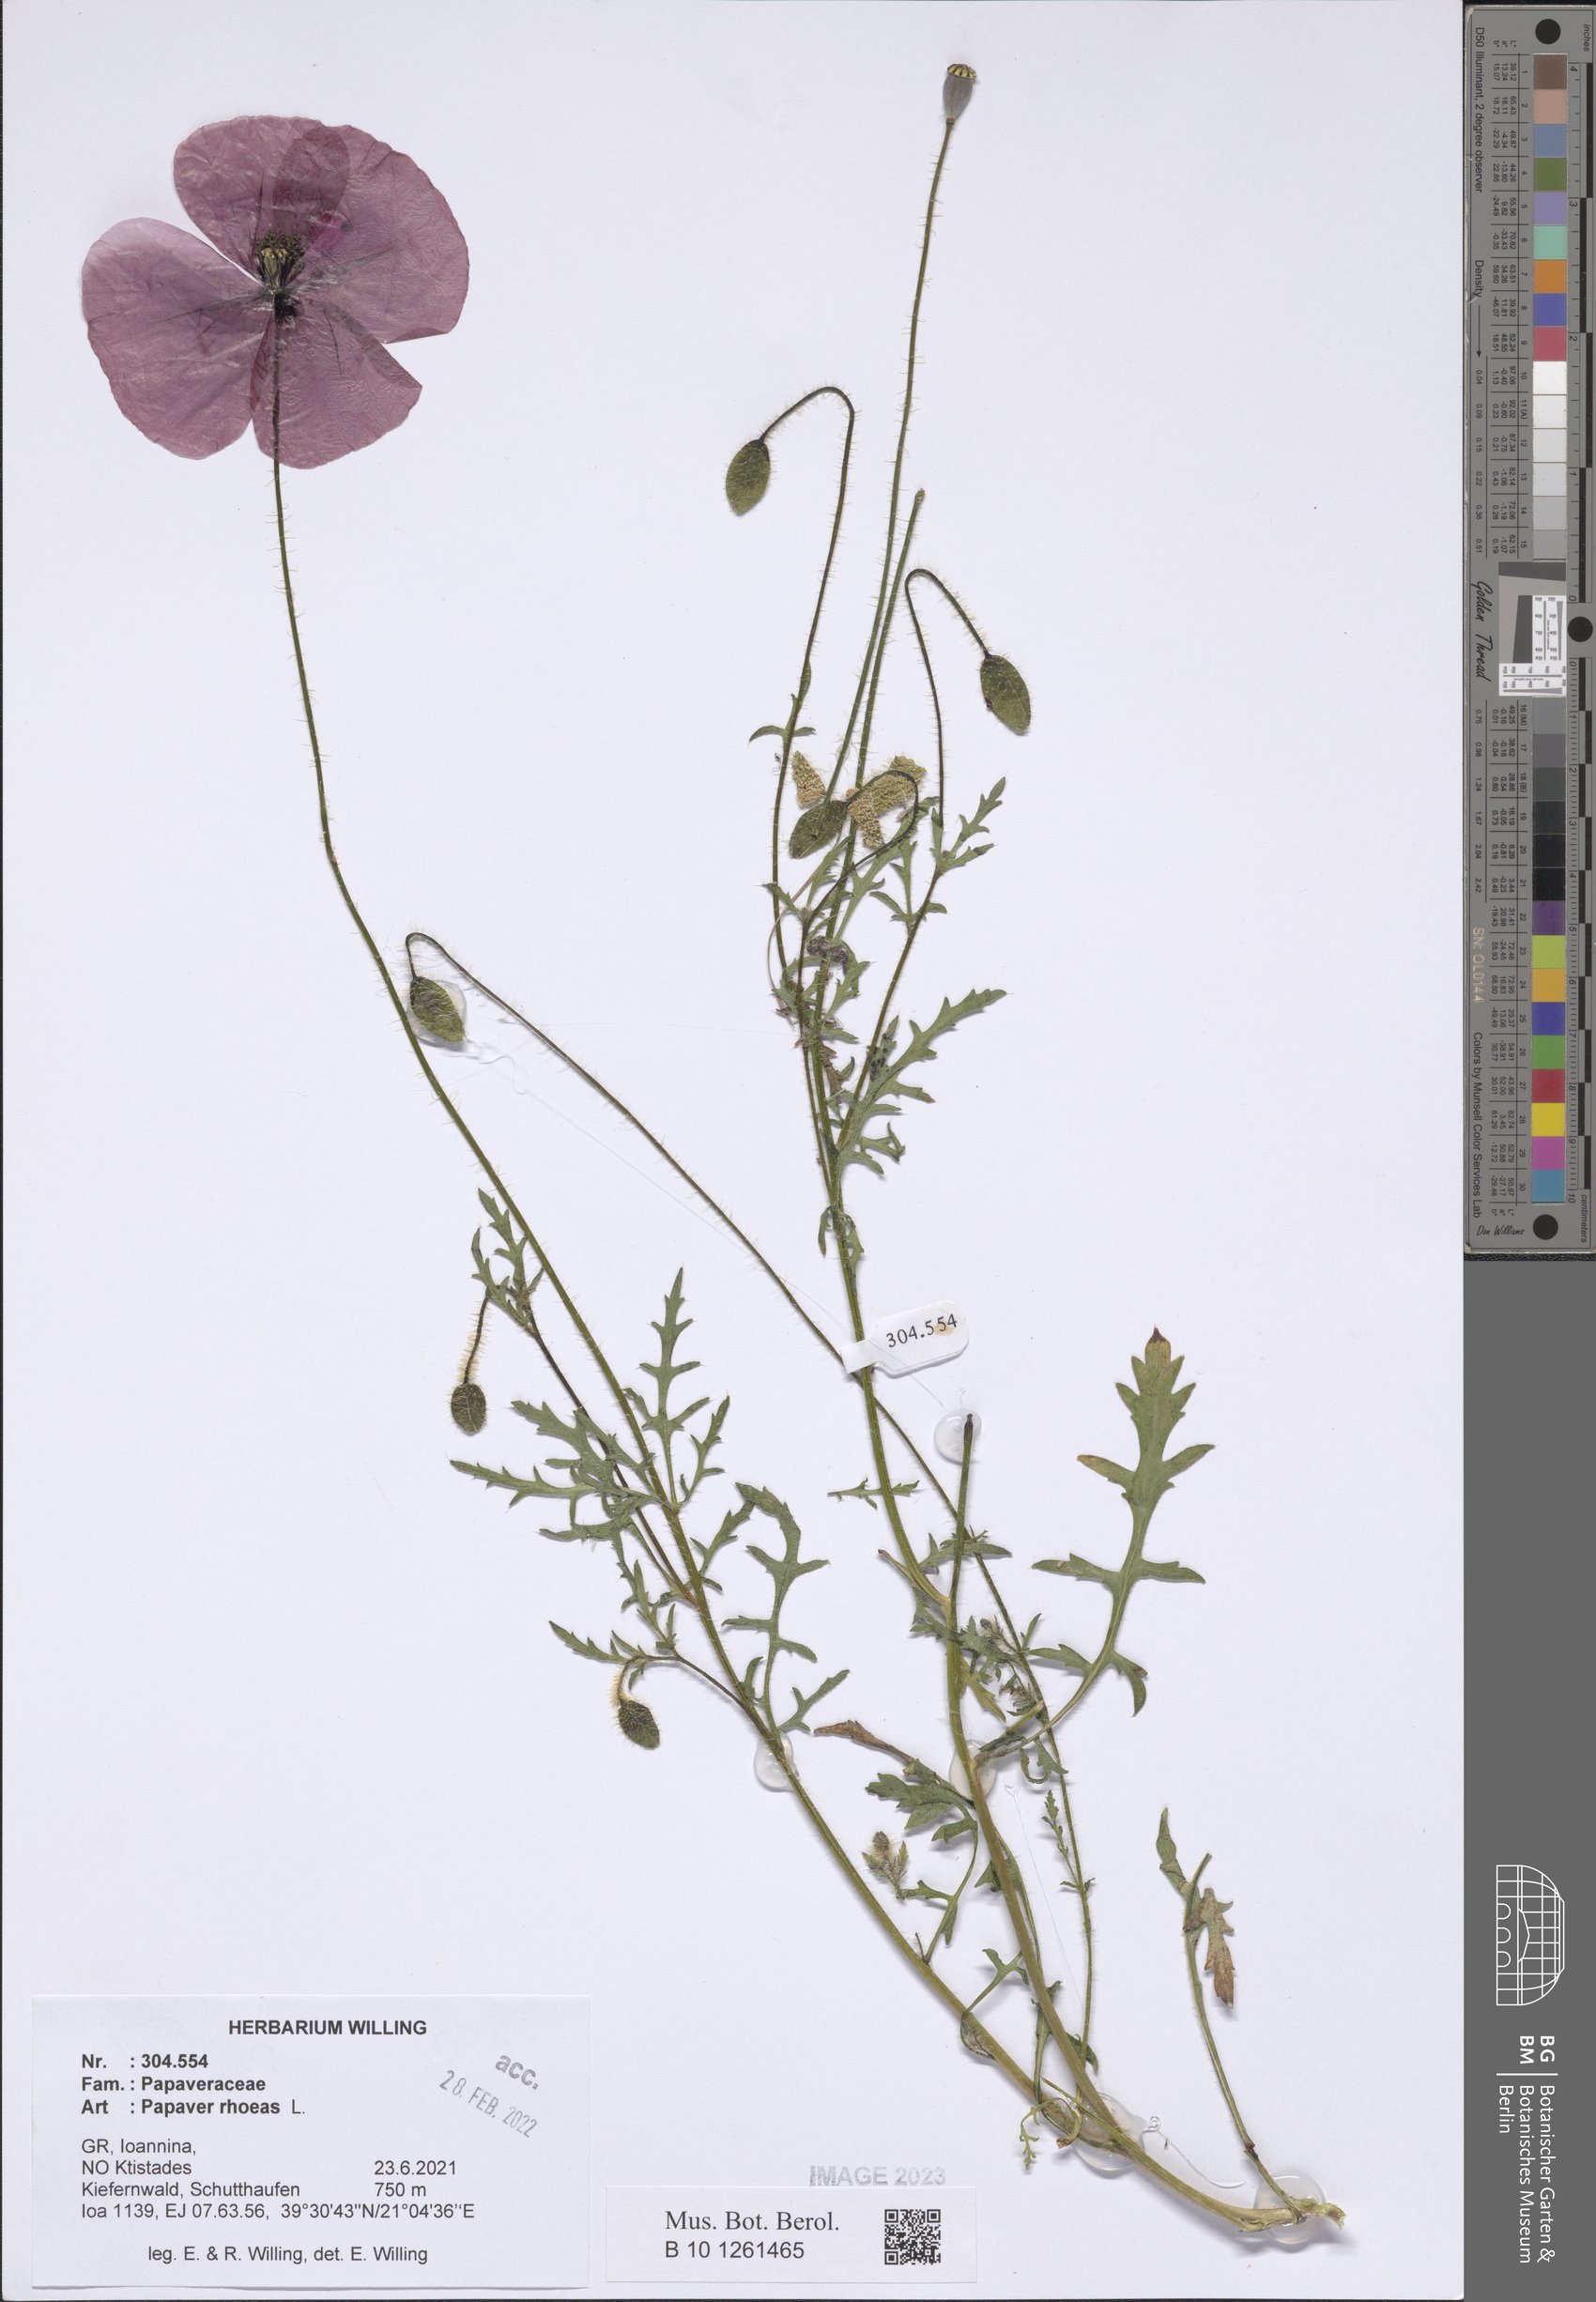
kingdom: Plantae
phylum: Tracheophyta
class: Magnoliopsida
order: Ranunculales
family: Papaveraceae
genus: Papaver
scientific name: Papaver rhoeas
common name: Corn poppy
